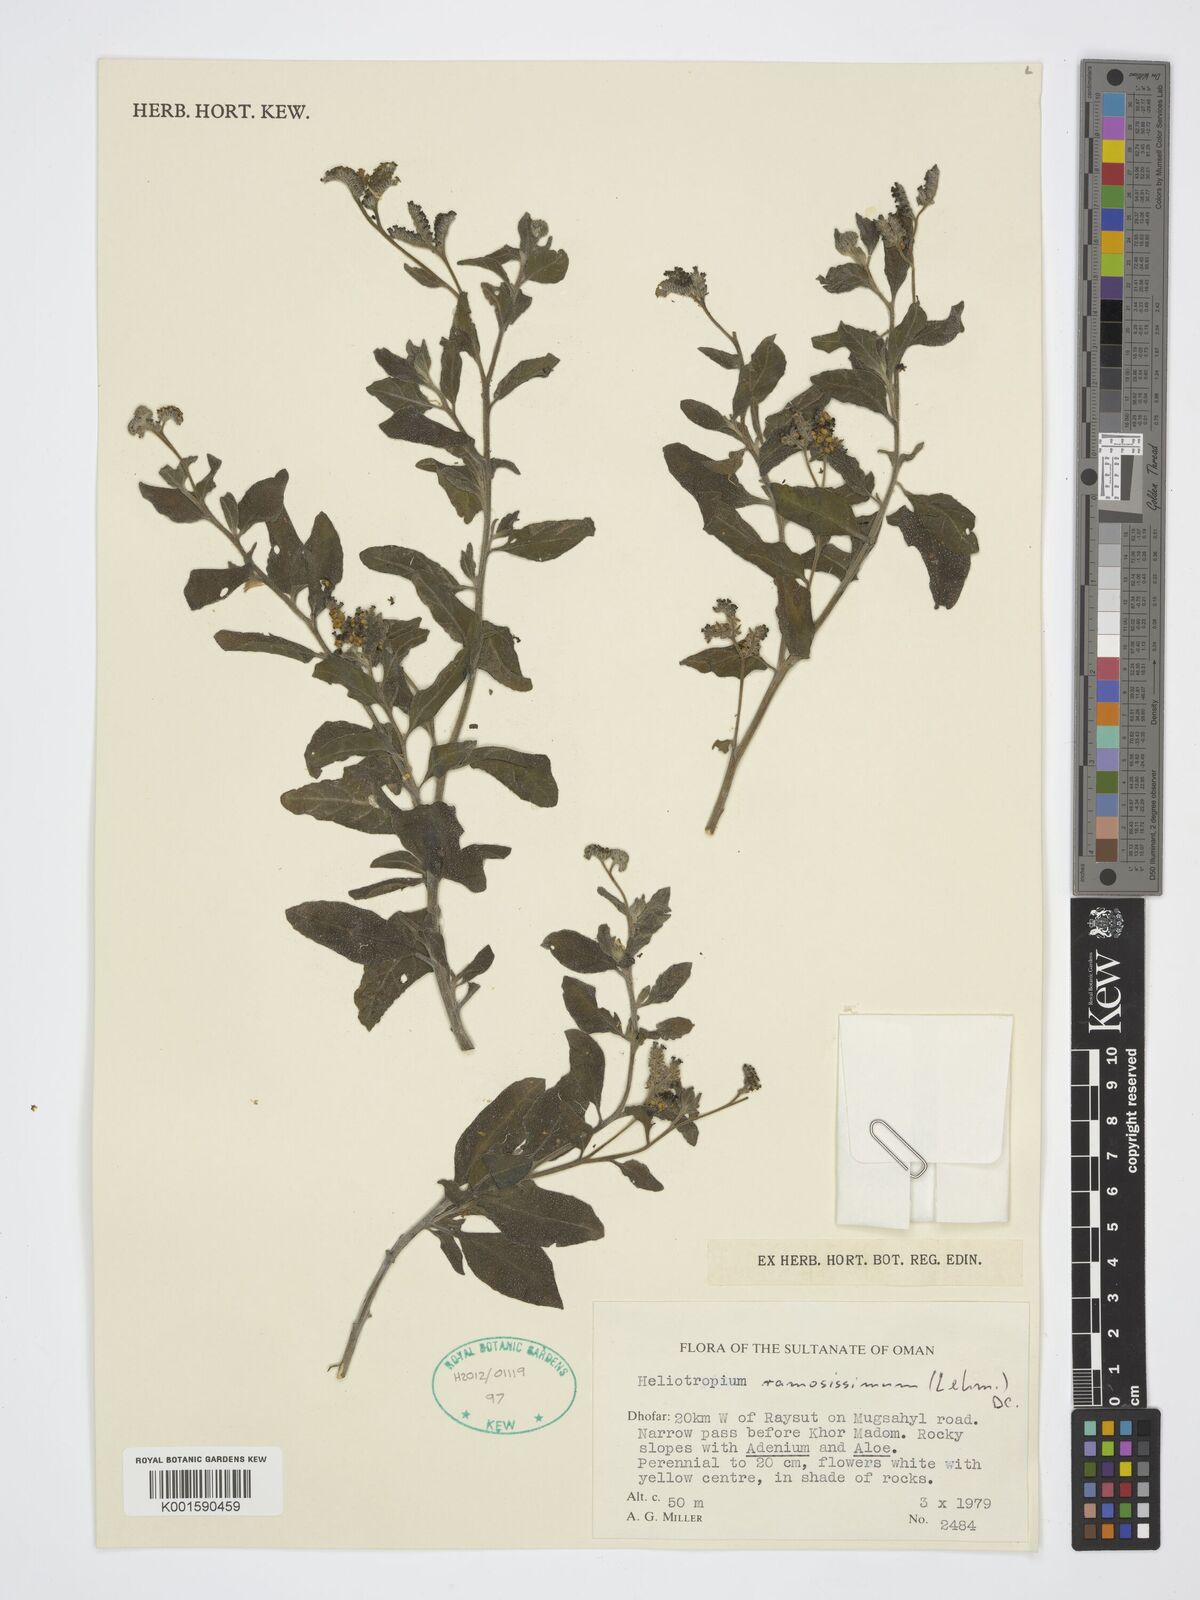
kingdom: Plantae
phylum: Tracheophyta
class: Magnoliopsida
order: Boraginales
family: Heliotropiaceae
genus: Heliotropium
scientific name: Heliotropium ramosissimum
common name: Wavy heliotrope
